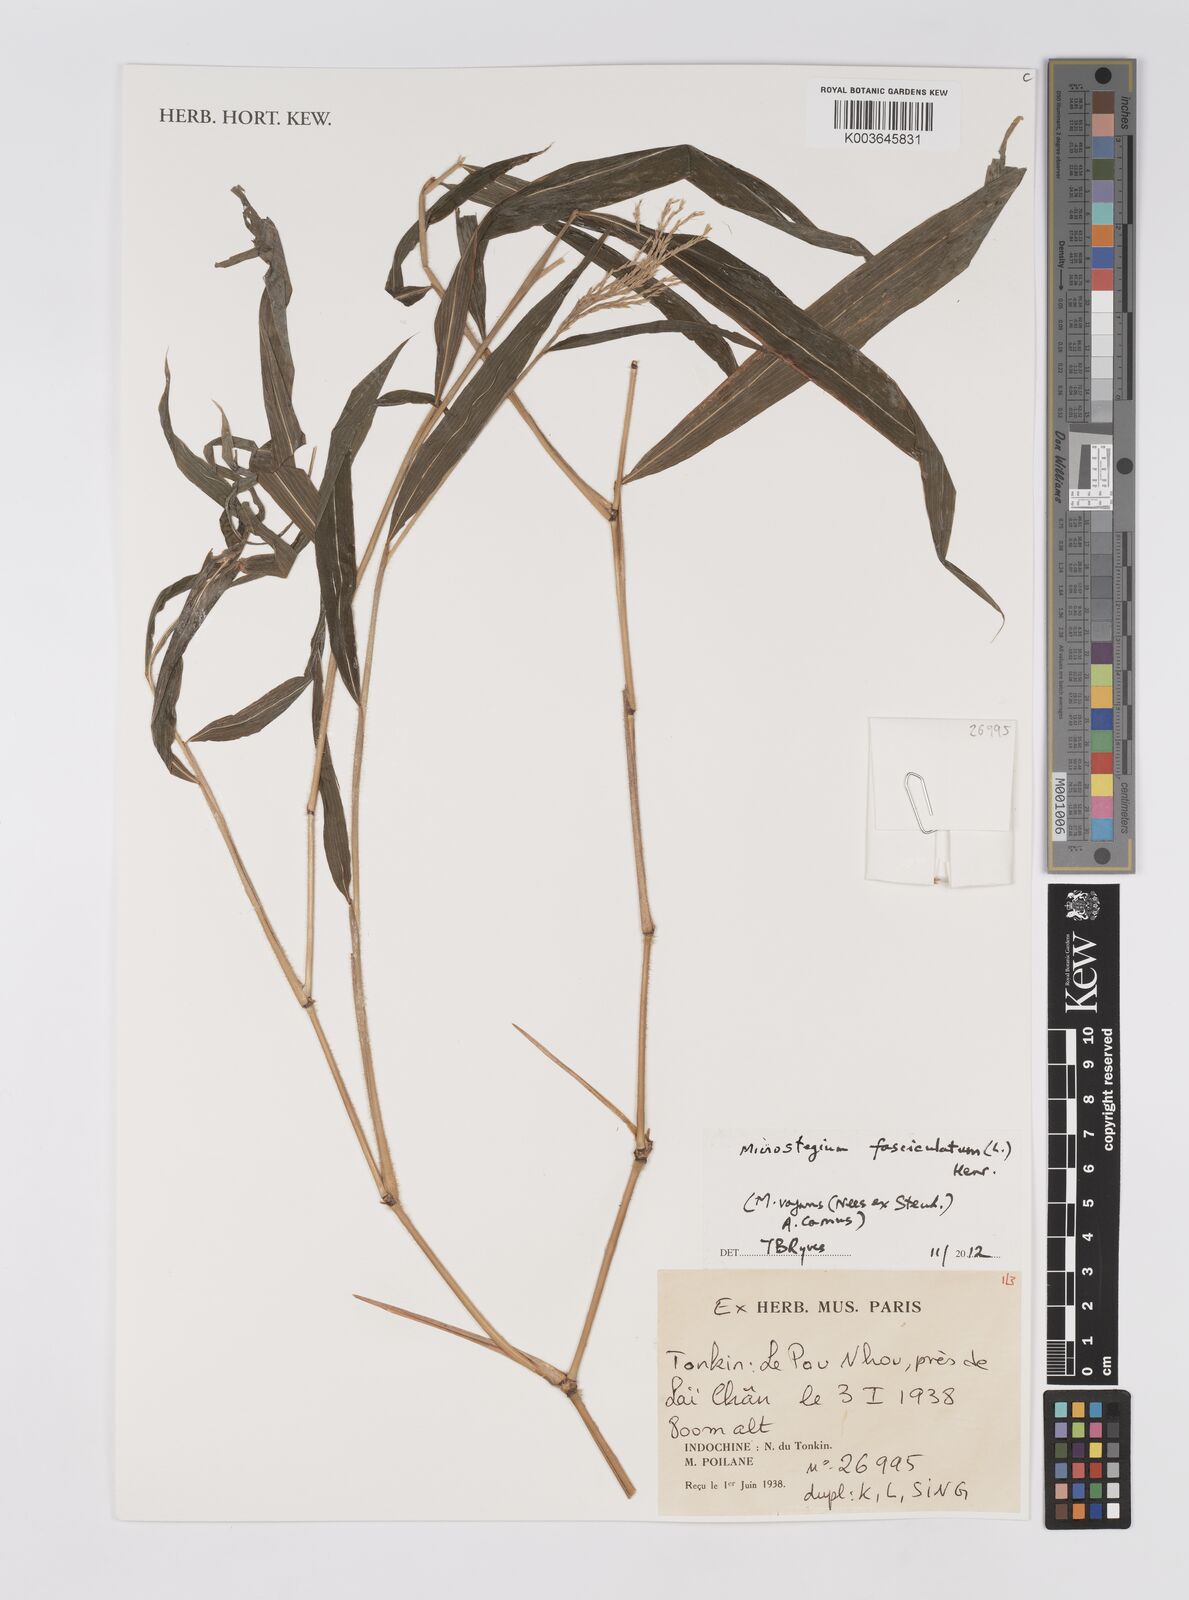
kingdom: Plantae
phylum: Tracheophyta
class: Liliopsida
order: Poales
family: Poaceae
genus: Microstegium
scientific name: Microstegium fasciculatum
